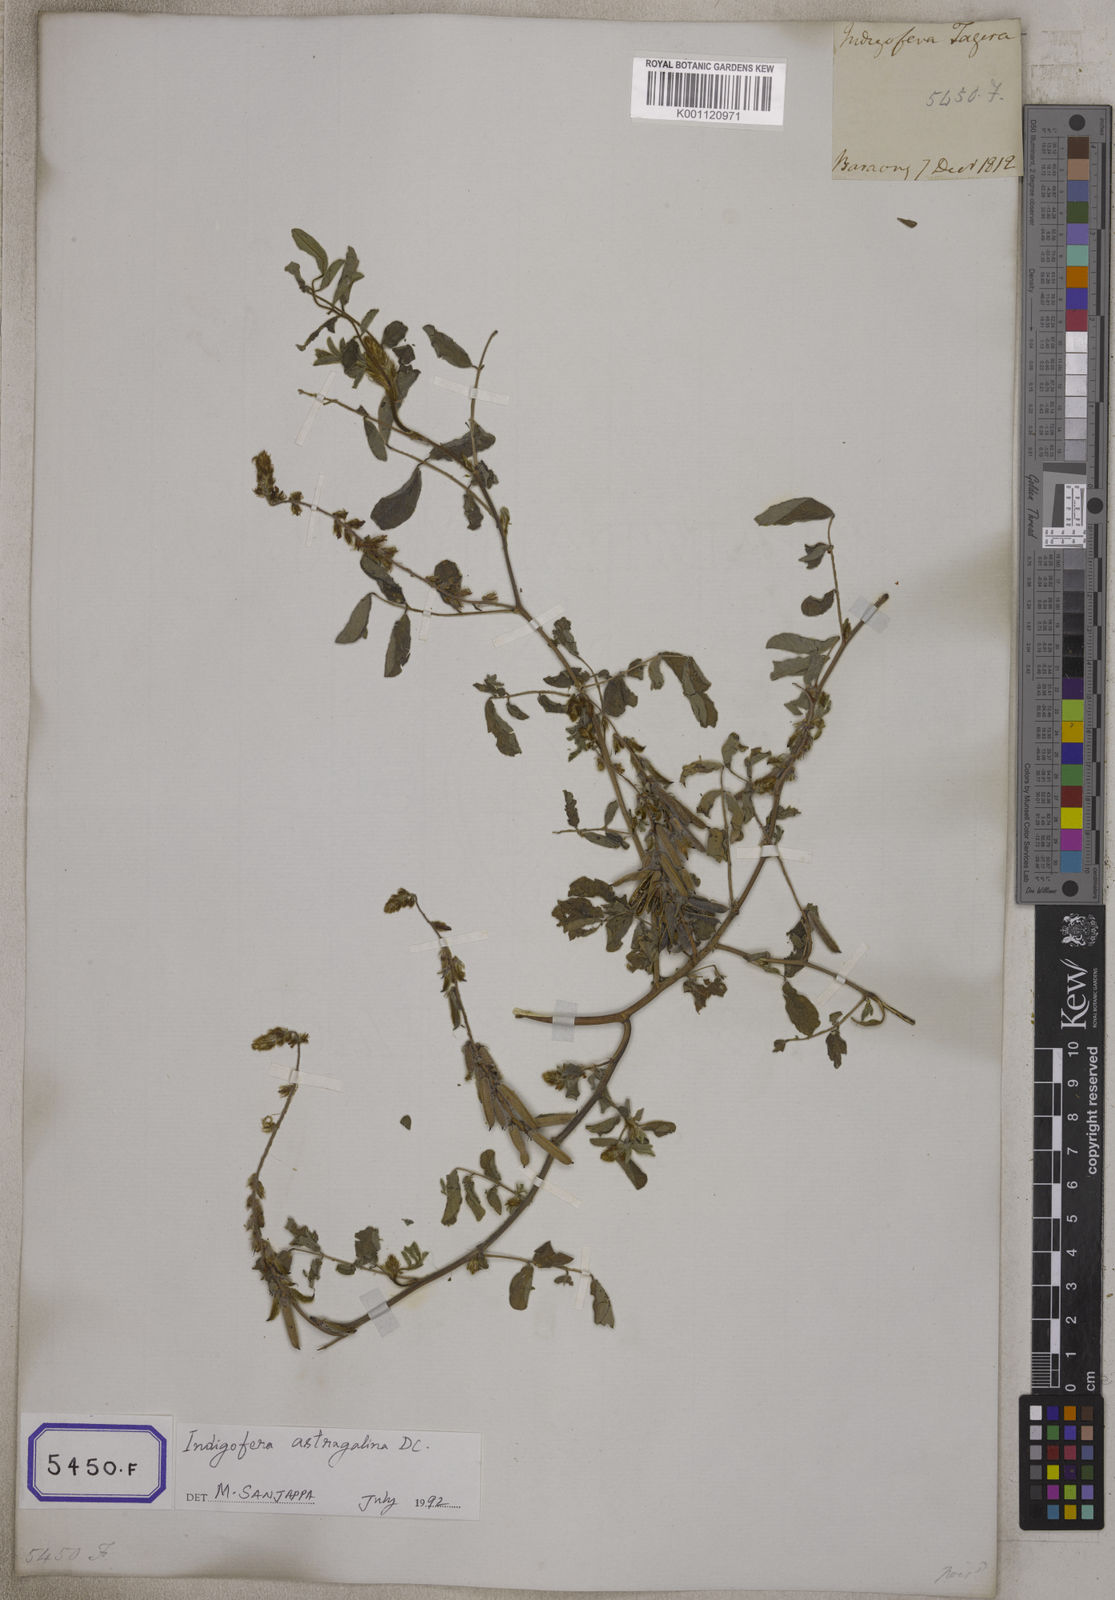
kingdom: Plantae
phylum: Tracheophyta
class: Magnoliopsida
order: Fabales
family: Fabaceae
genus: Indigofera
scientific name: Indigofera hirsuta
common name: Hairy indigo
